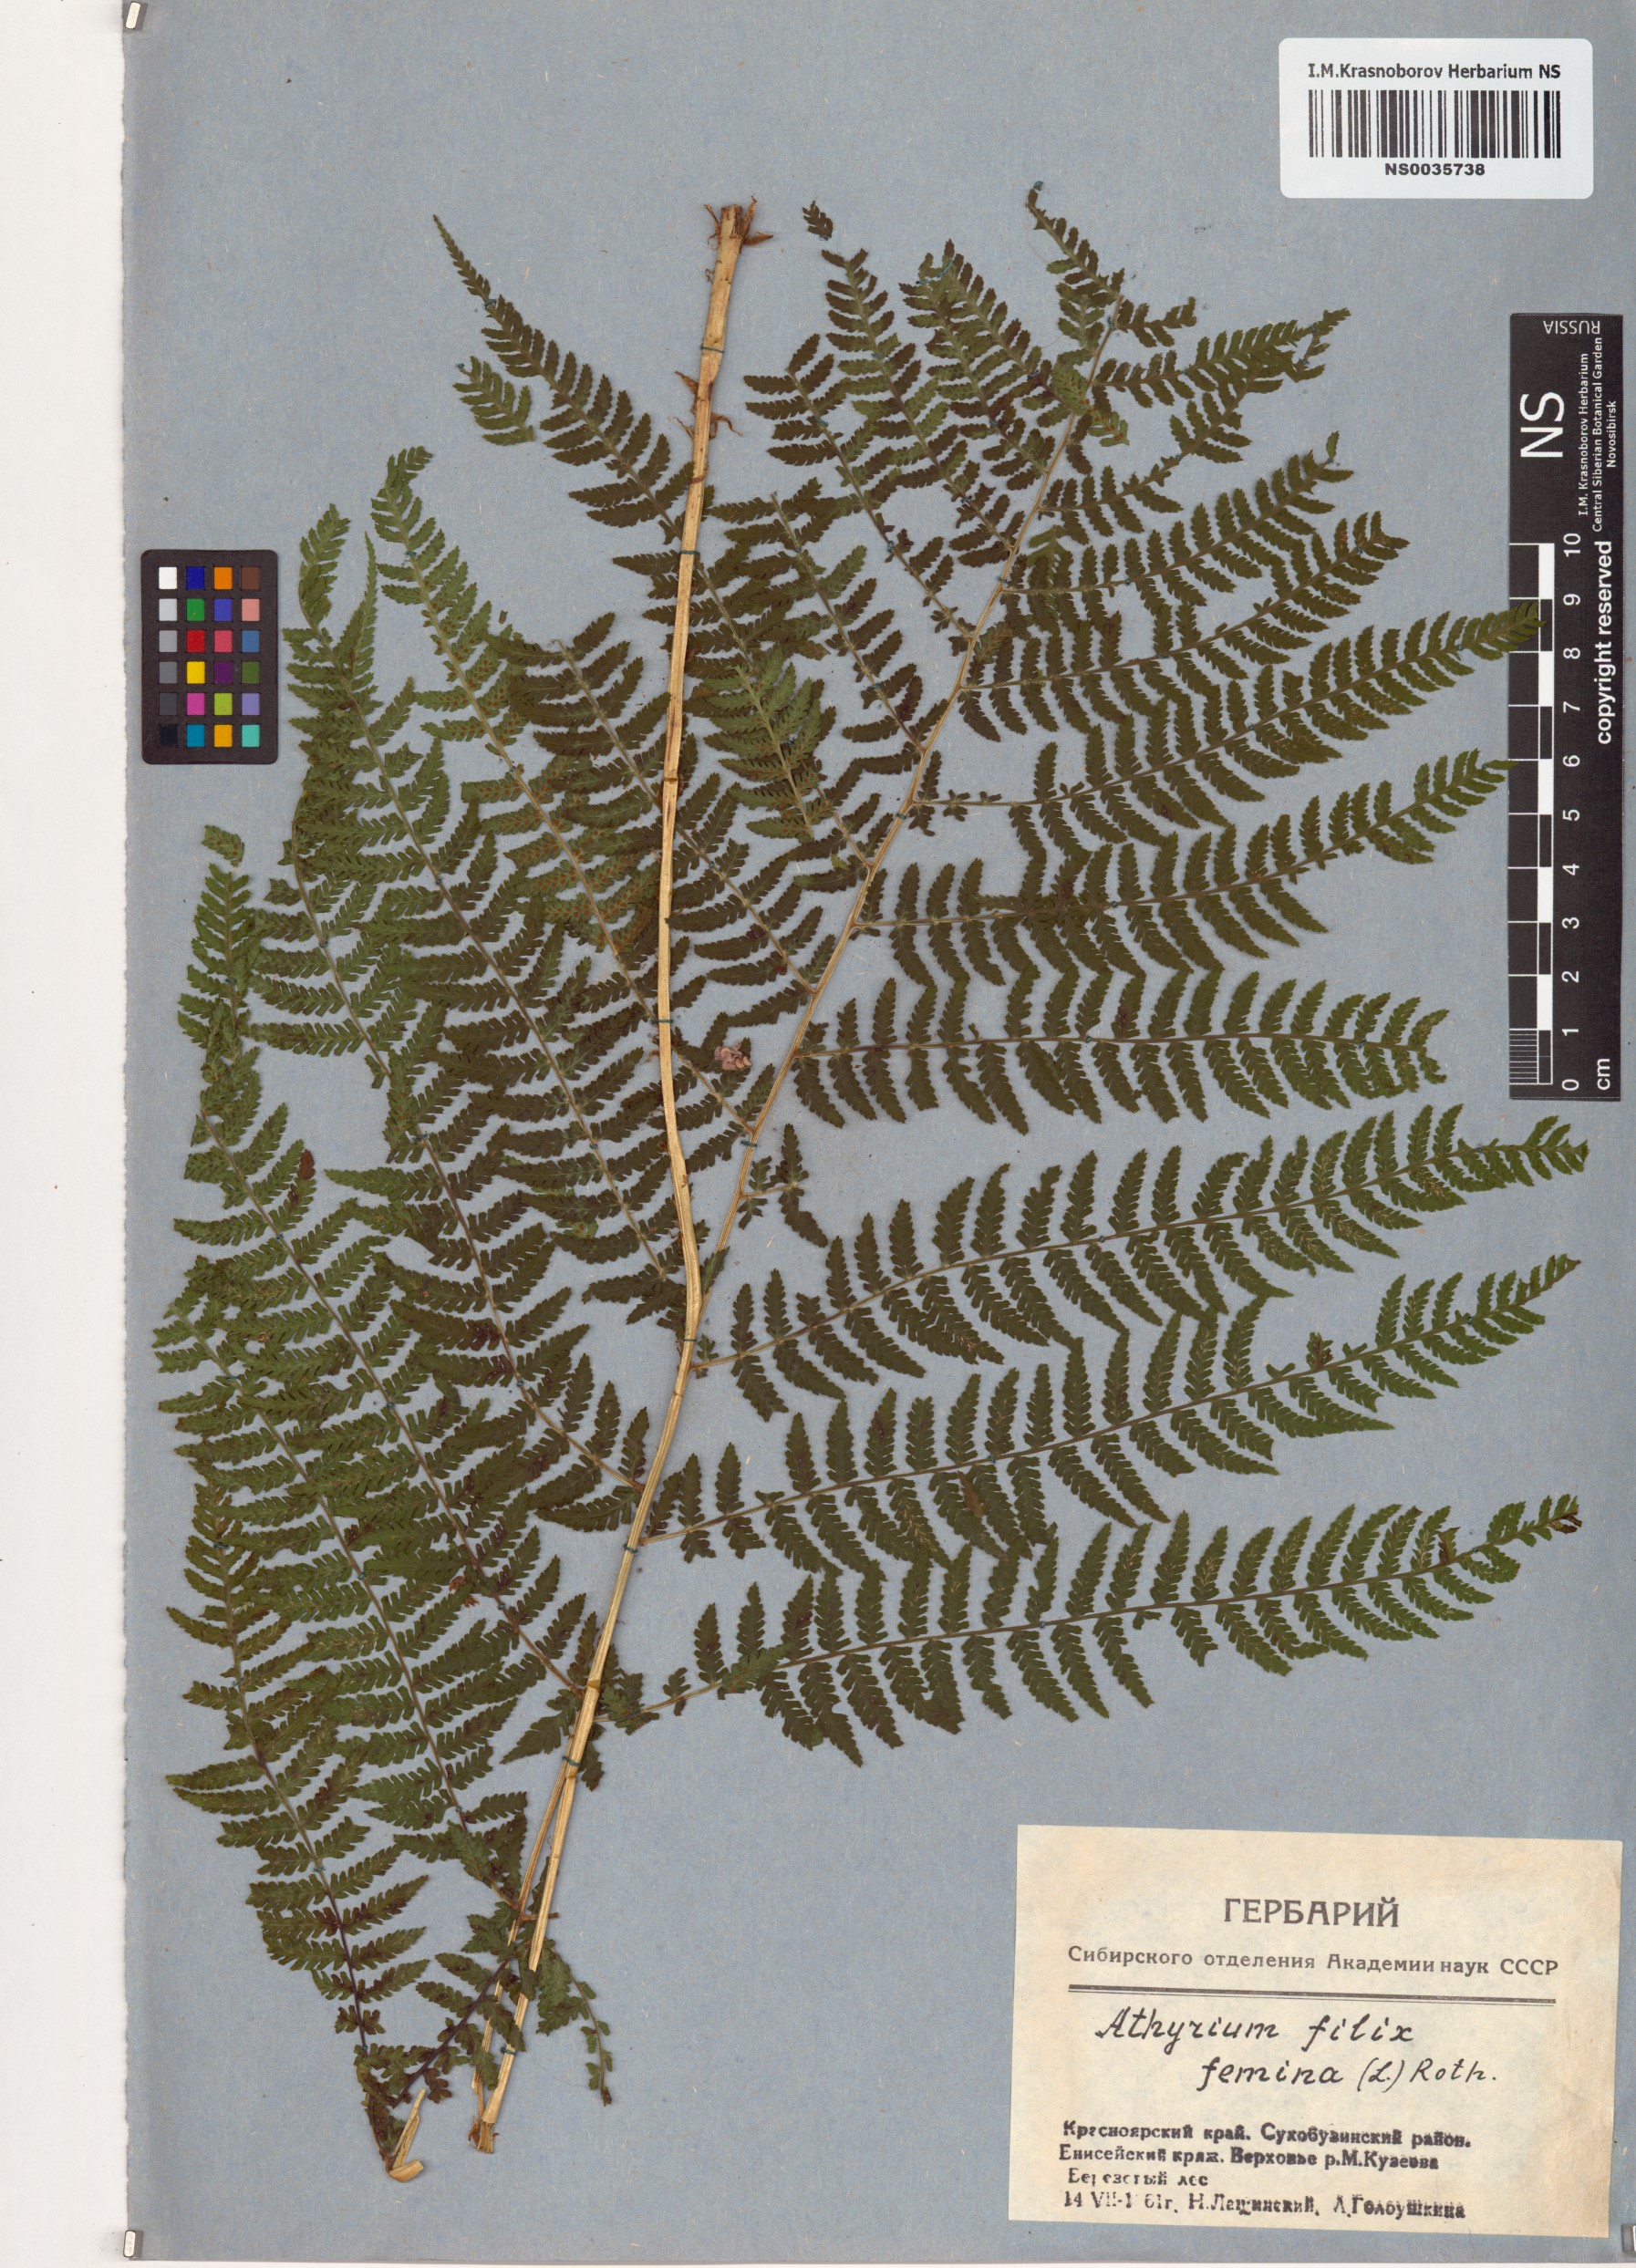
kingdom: Plantae
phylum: Tracheophyta
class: Polypodiopsida
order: Polypodiales
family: Athyriaceae
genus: Athyrium
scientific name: Athyrium filix-femina
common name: Lady fern
